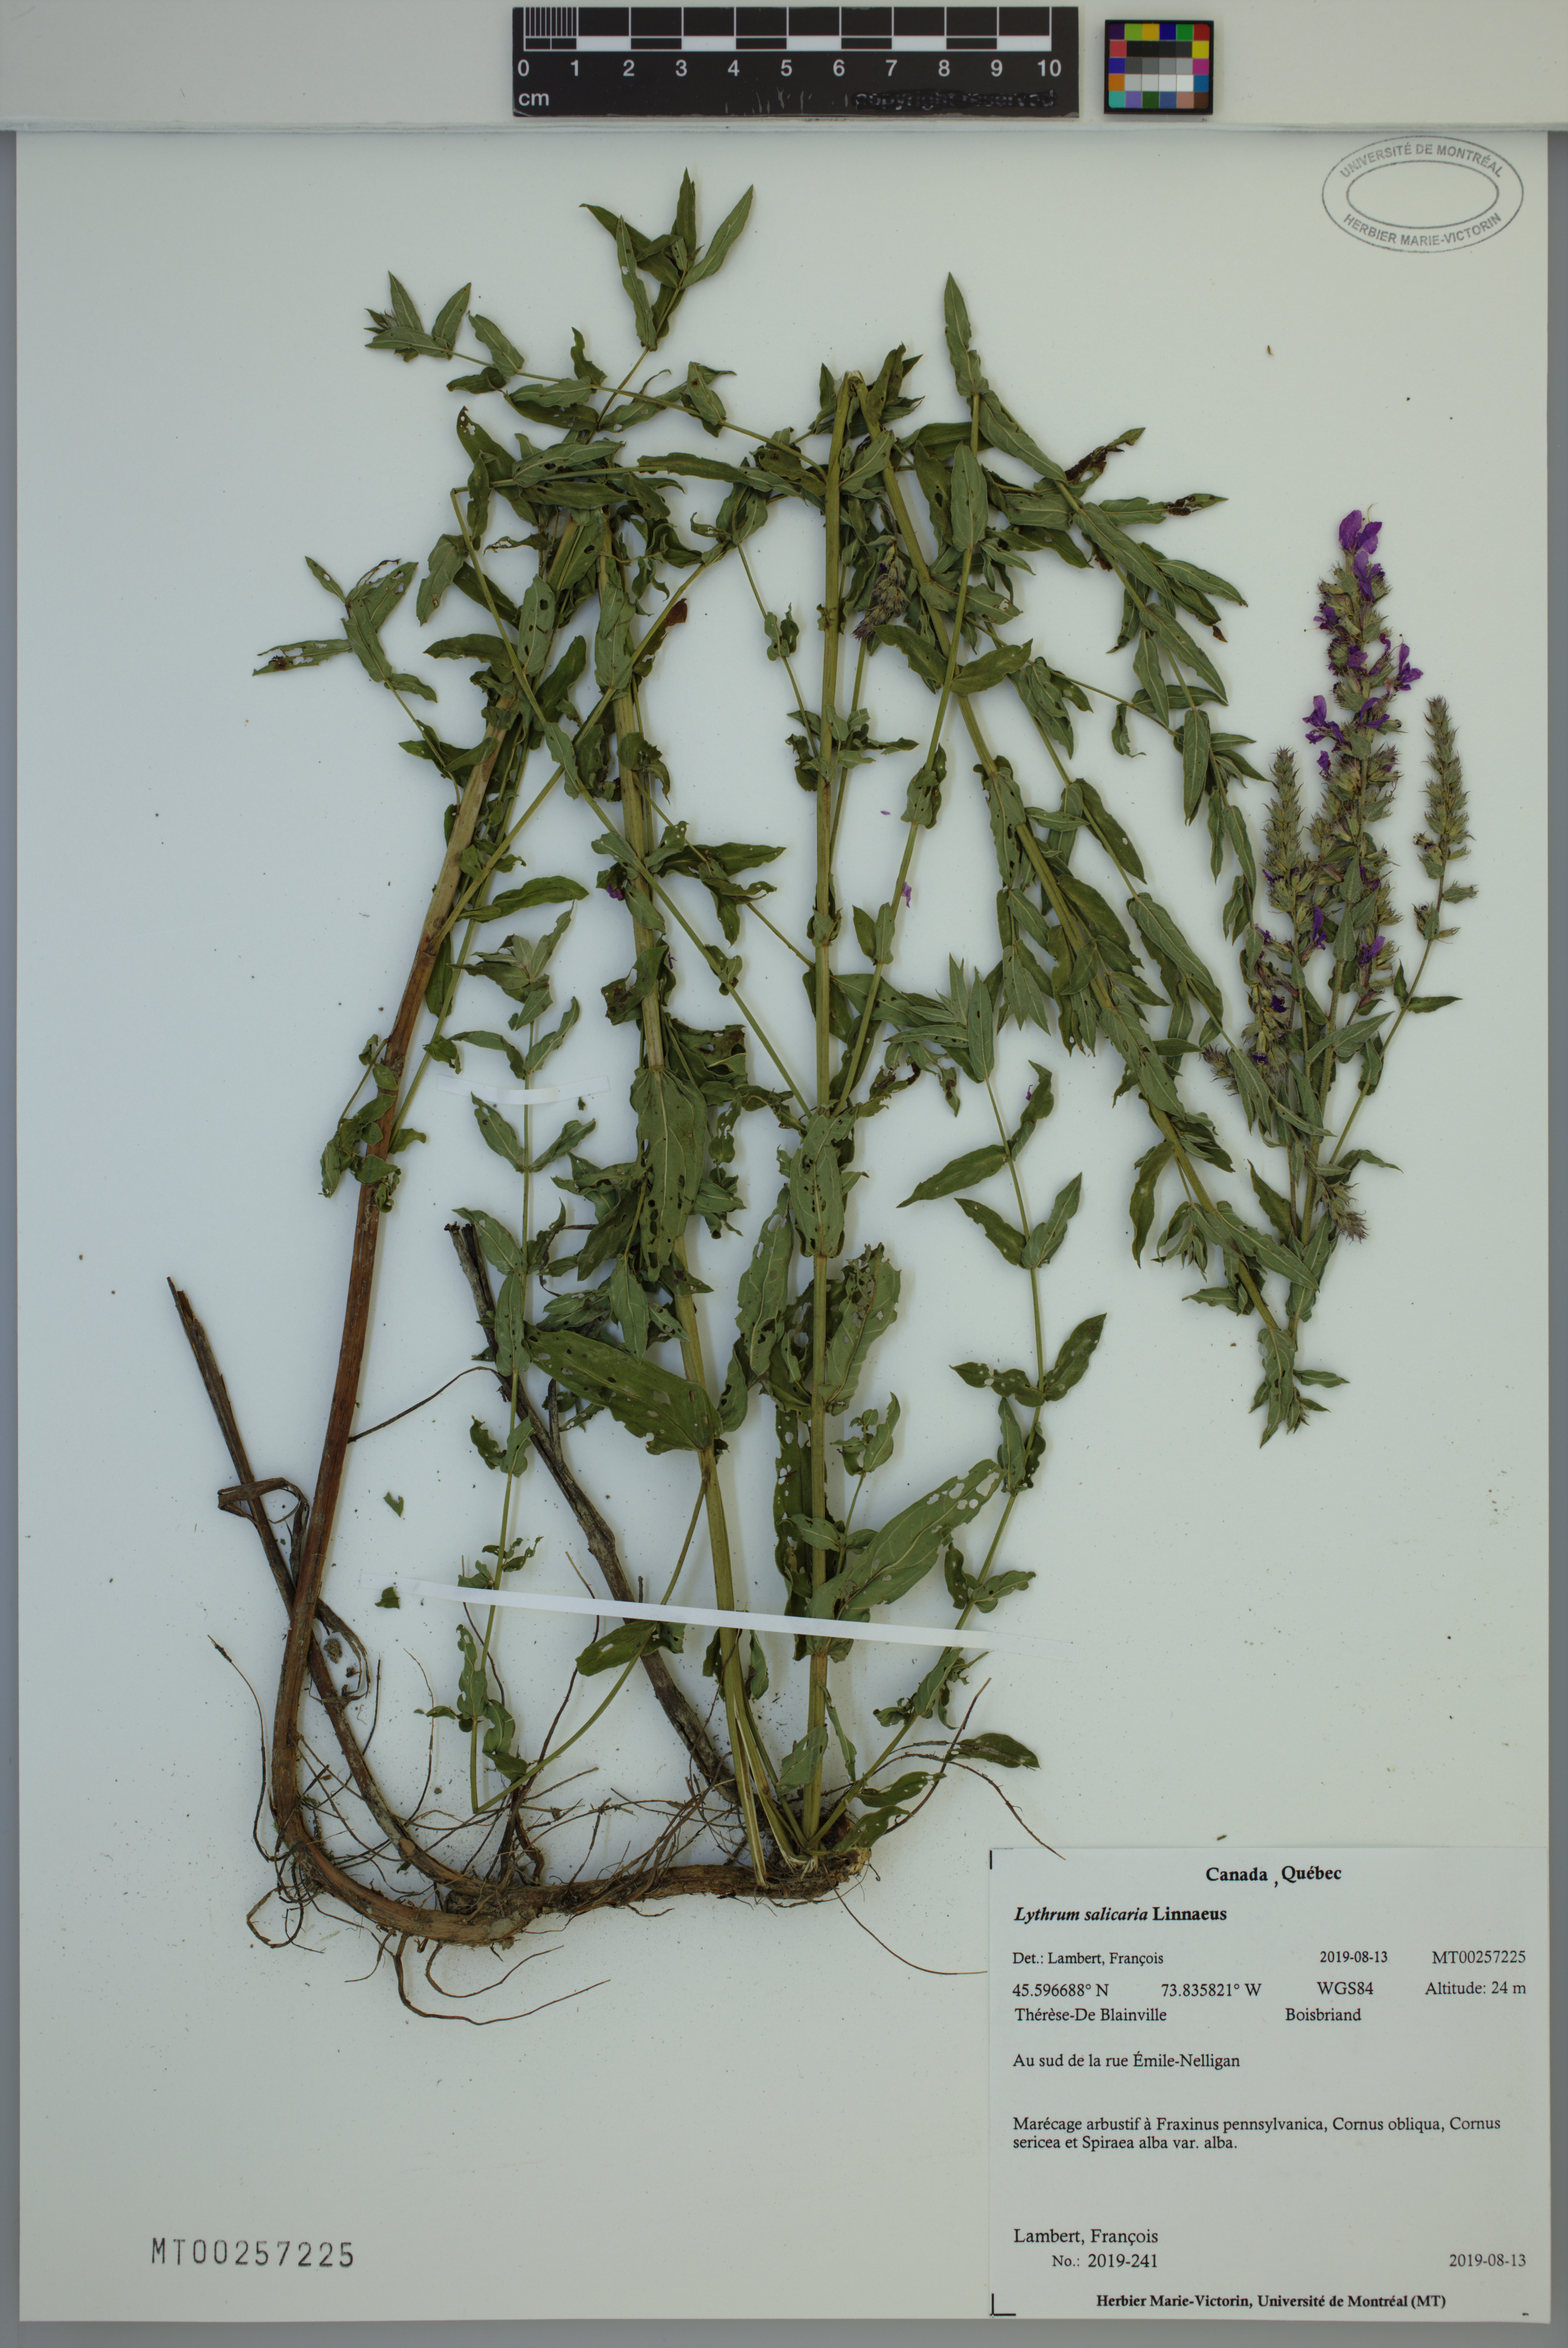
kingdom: Plantae
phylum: Tracheophyta
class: Magnoliopsida
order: Myrtales
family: Lythraceae
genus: Lythrum
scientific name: Lythrum salicaria
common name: Purple loosestrife
